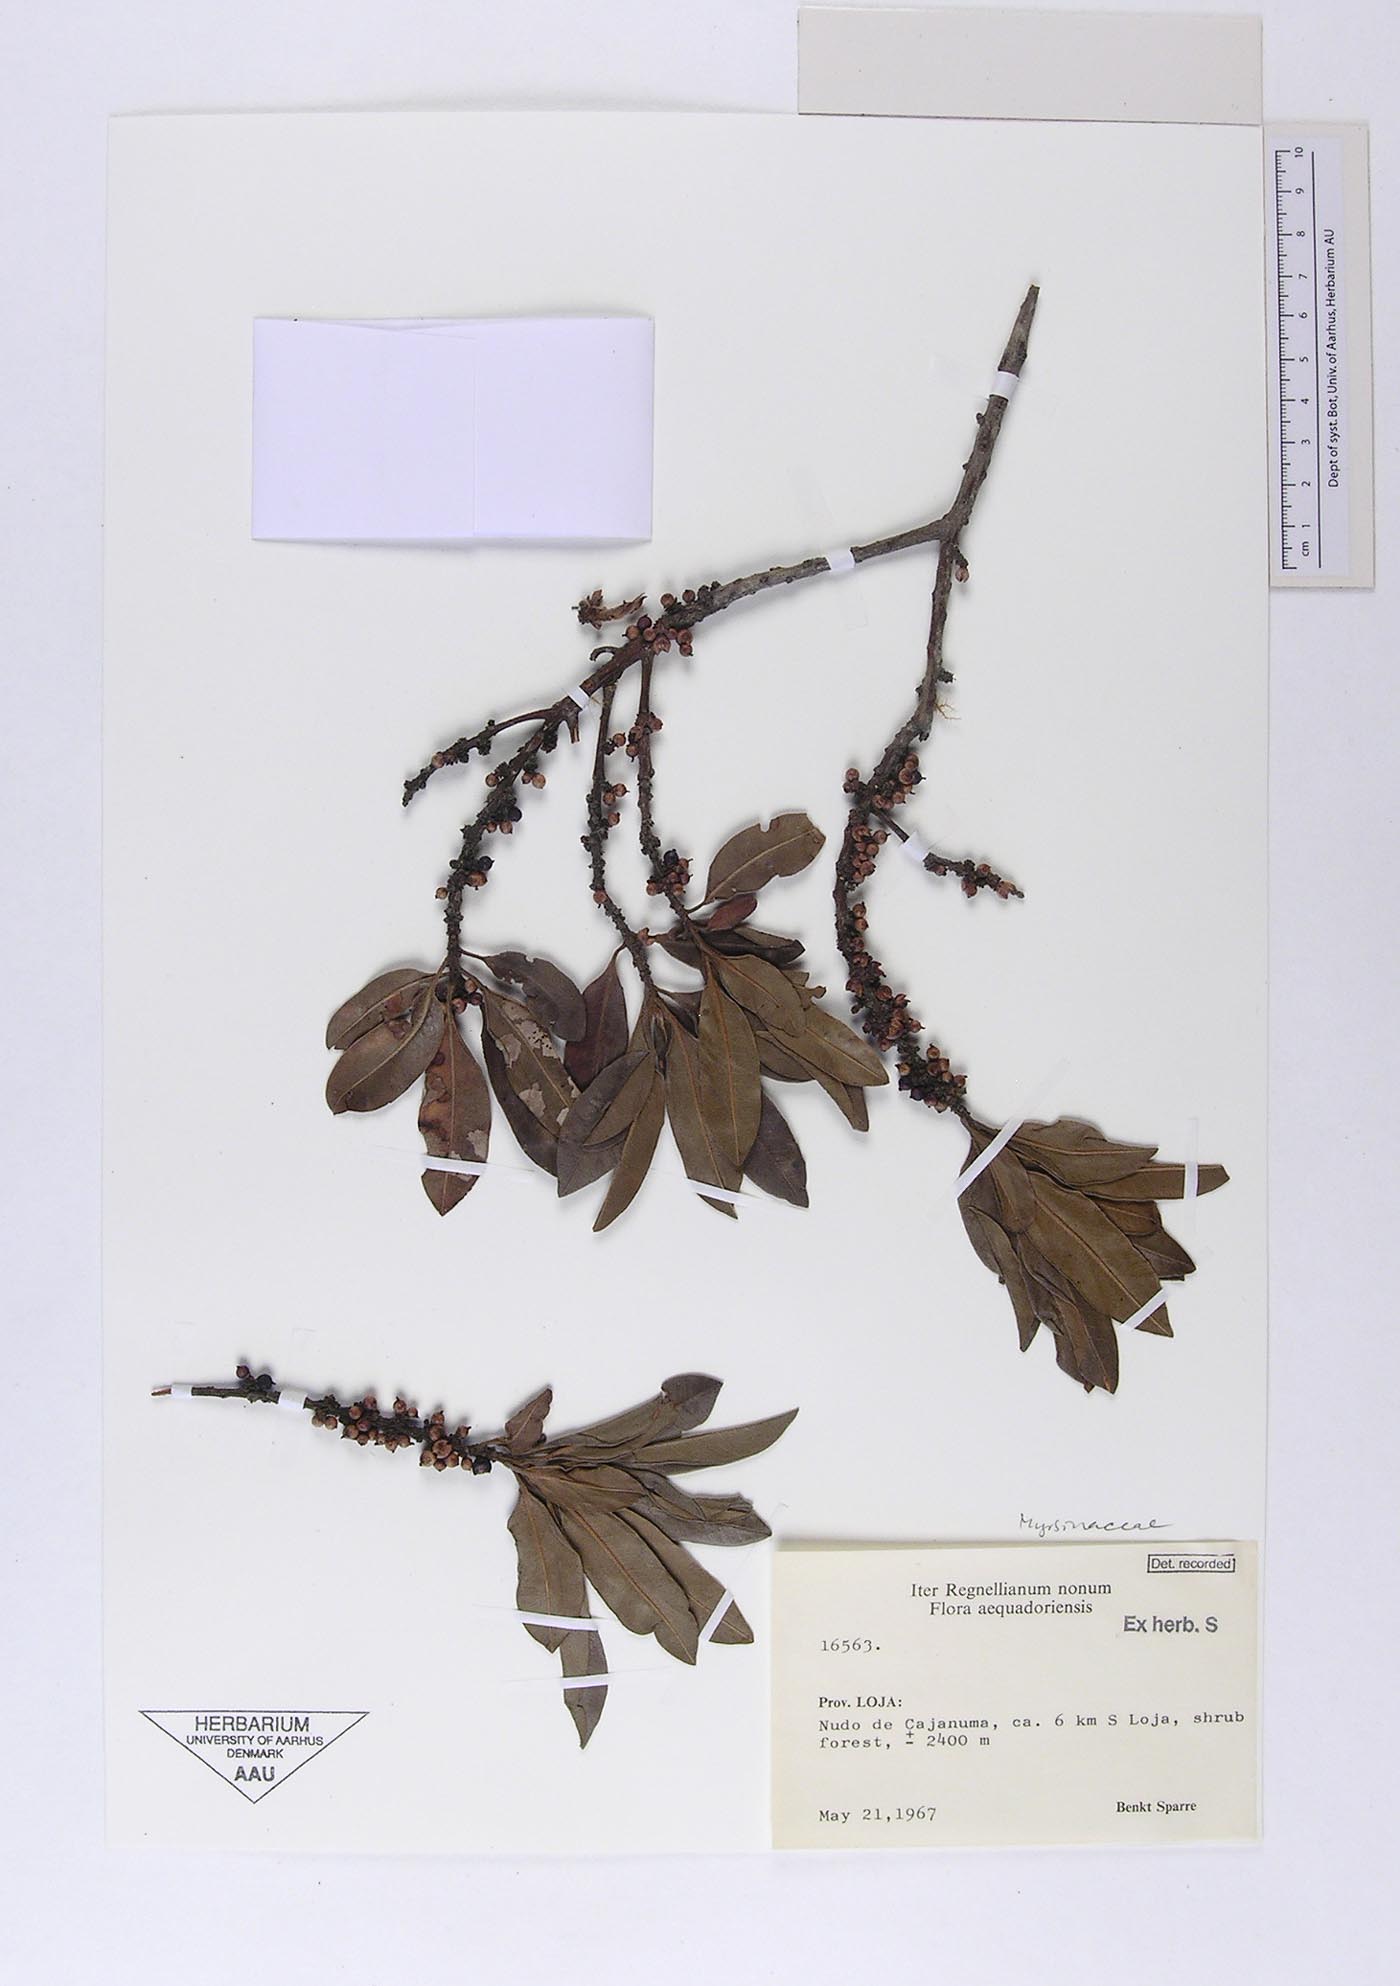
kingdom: Plantae
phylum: Tracheophyta
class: Magnoliopsida
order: Ericales
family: Primulaceae
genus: Myrsine
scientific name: Myrsine coriacea
